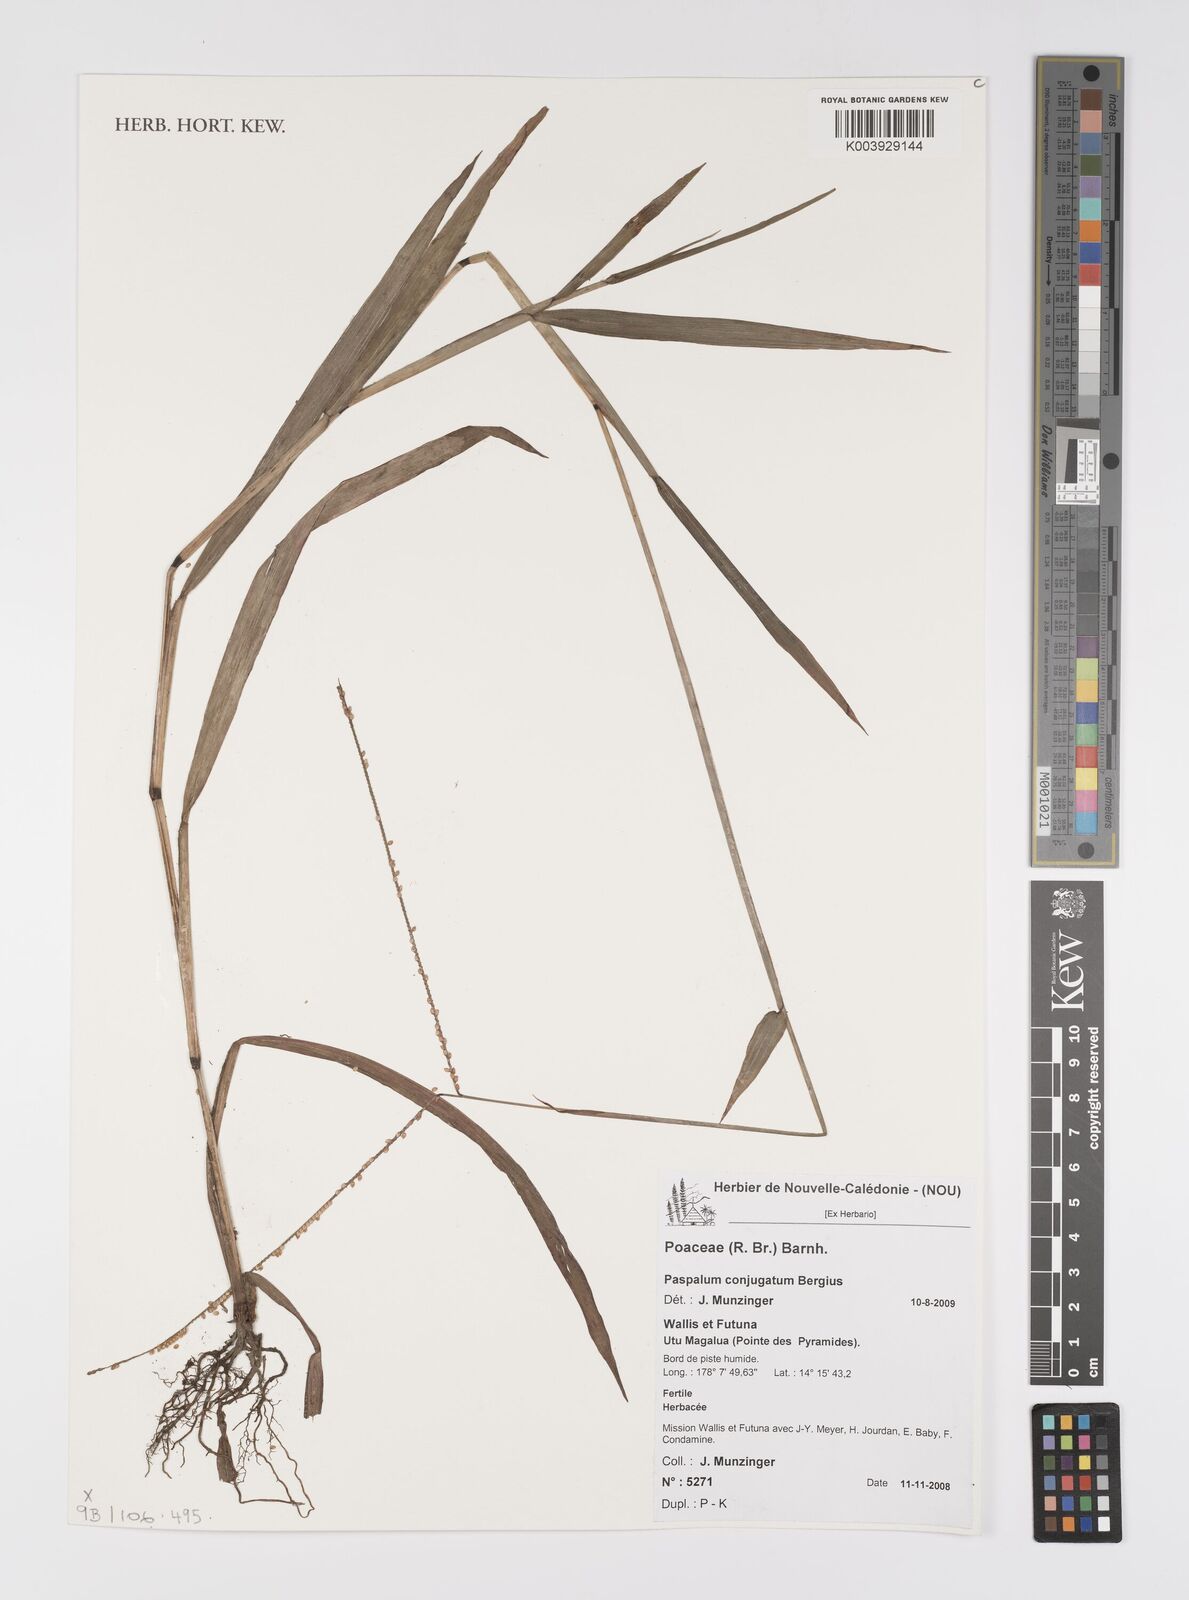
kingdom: Plantae
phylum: Tracheophyta
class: Liliopsida
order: Poales
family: Poaceae
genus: Paspalum
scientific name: Paspalum conjugatum
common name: Hilograss
